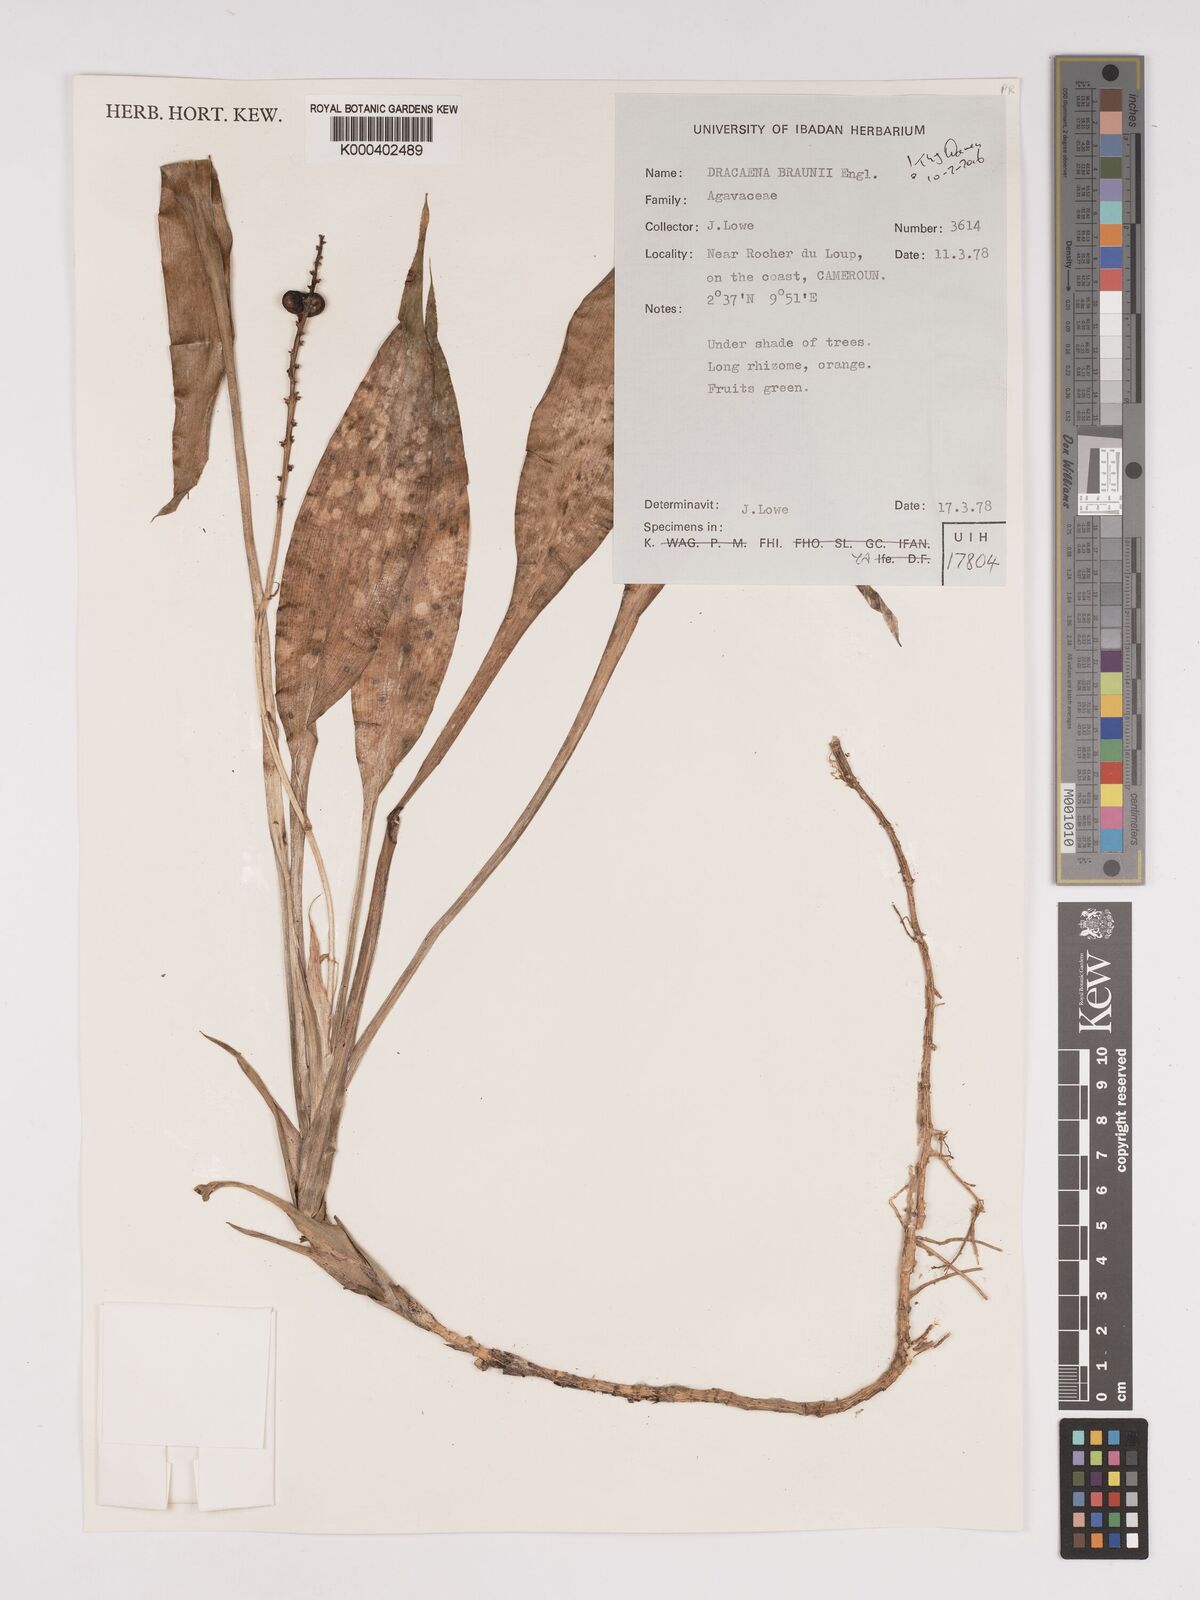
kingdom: Plantae
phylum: Tracheophyta
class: Liliopsida
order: Asparagales
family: Asparagaceae
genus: Dracaena
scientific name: Dracaena braunii
